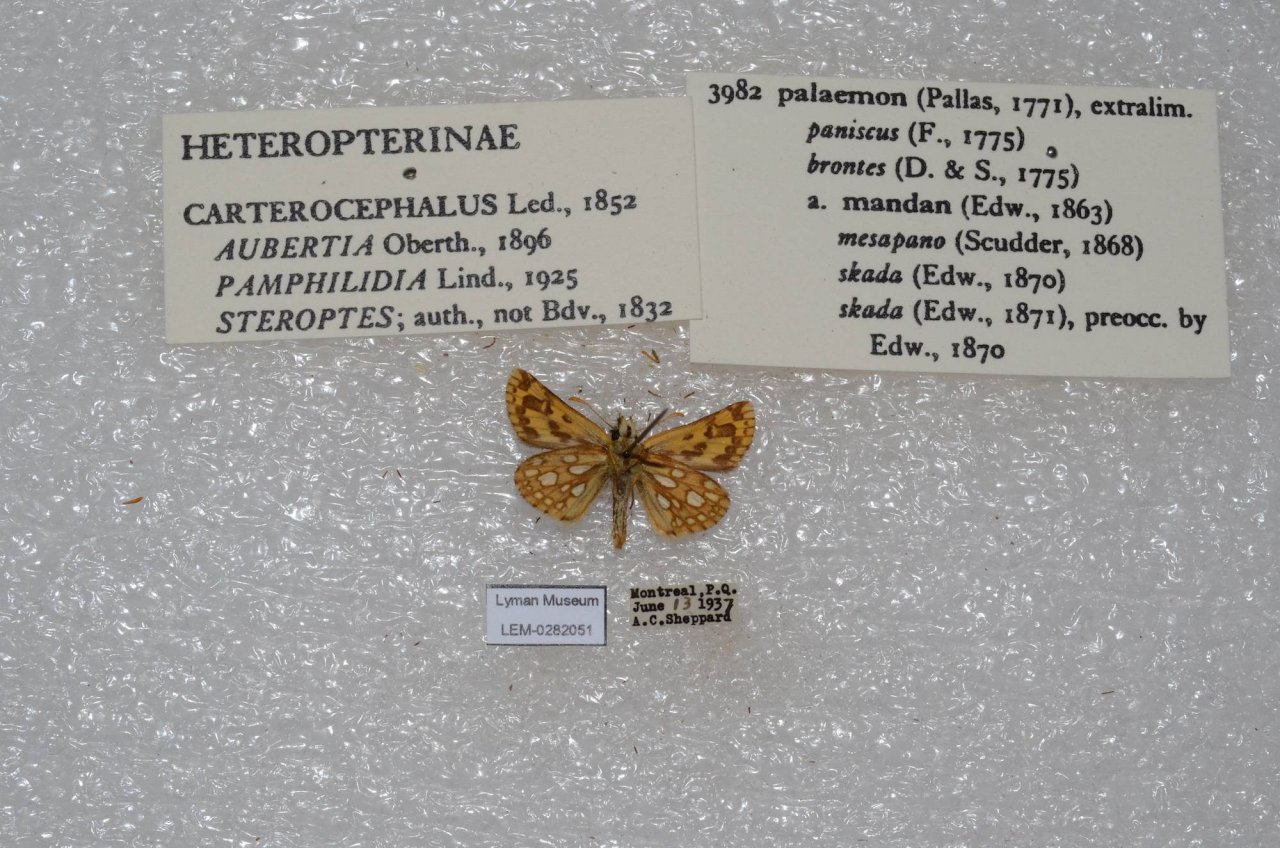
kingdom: Animalia
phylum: Arthropoda
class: Insecta
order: Lepidoptera
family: Hesperiidae
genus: Carterocephalus
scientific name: Carterocephalus palaemon
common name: Chequered Skipper
